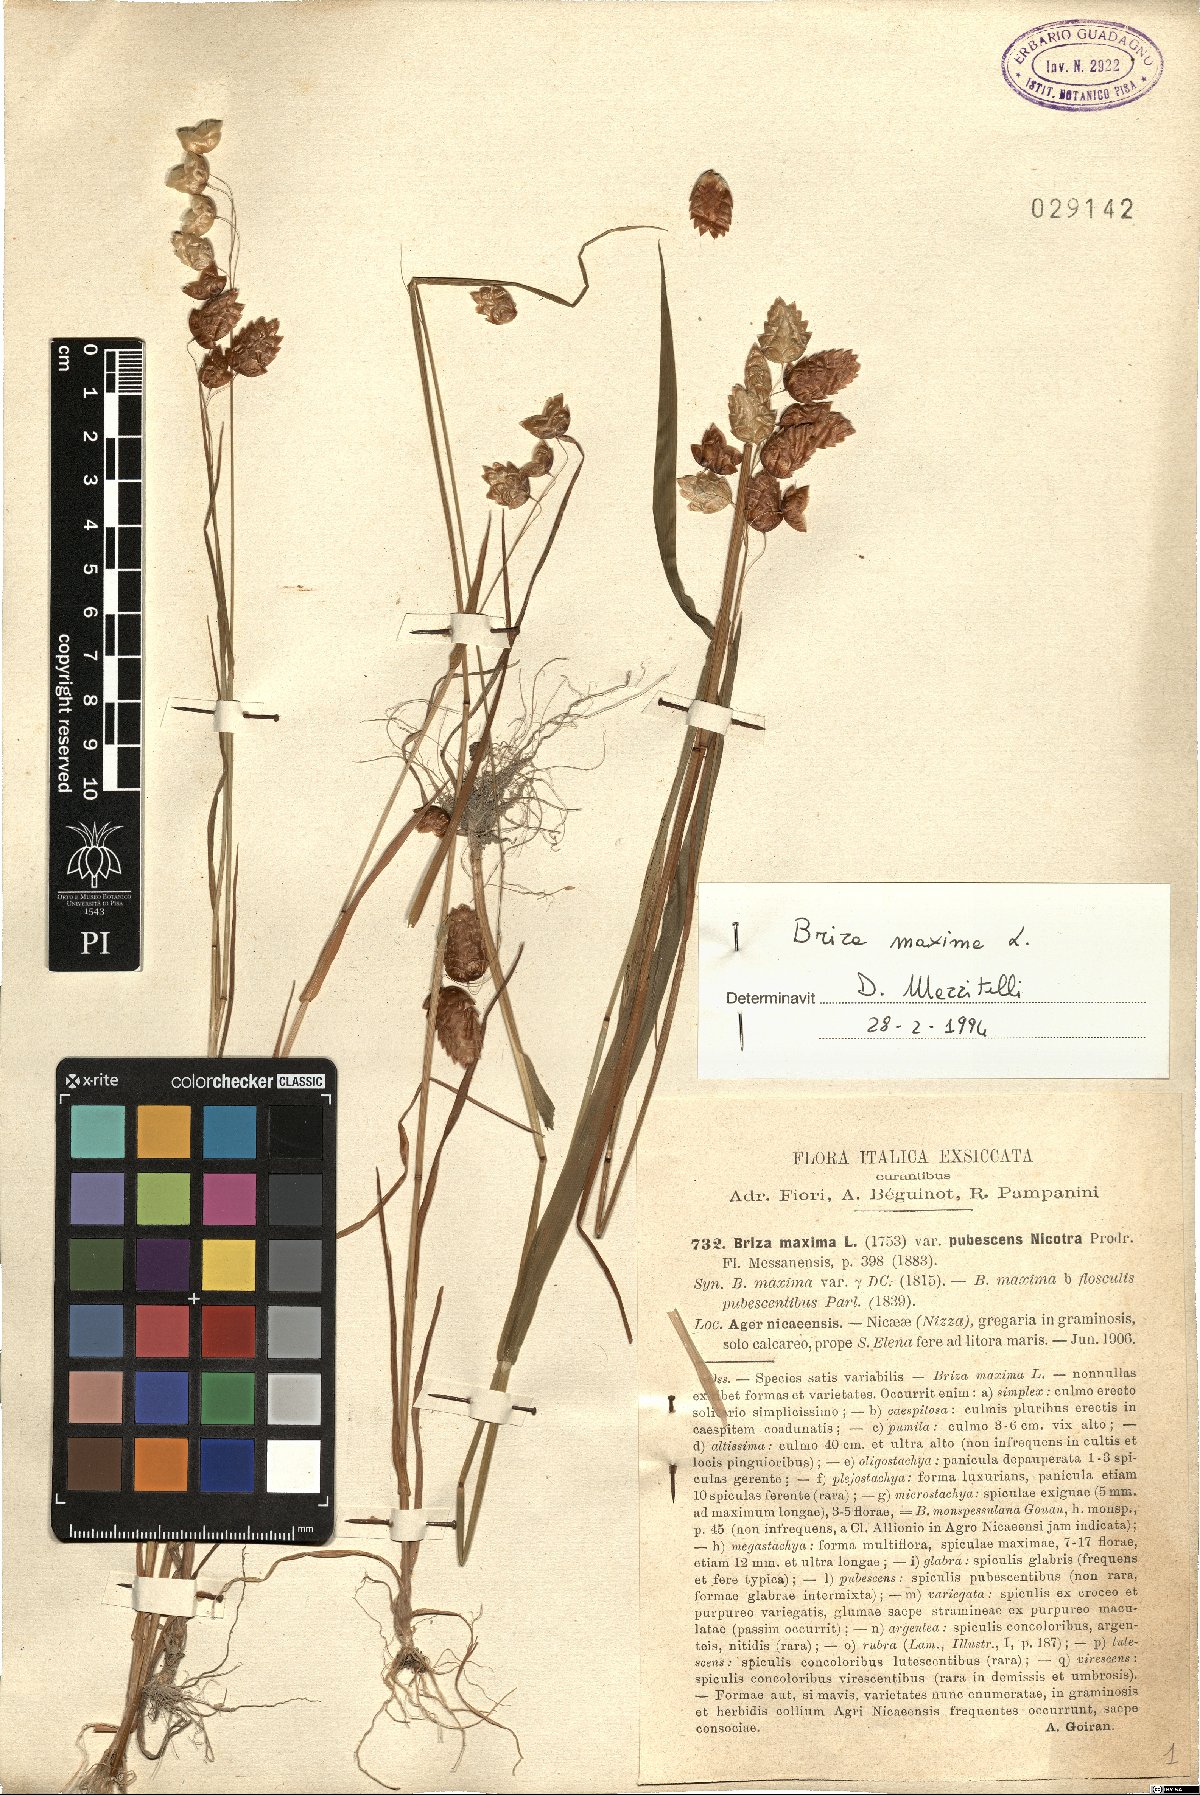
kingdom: Plantae
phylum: Tracheophyta
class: Liliopsida
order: Poales
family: Poaceae
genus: Briza
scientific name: Briza maxima
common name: Big quakinggrass
